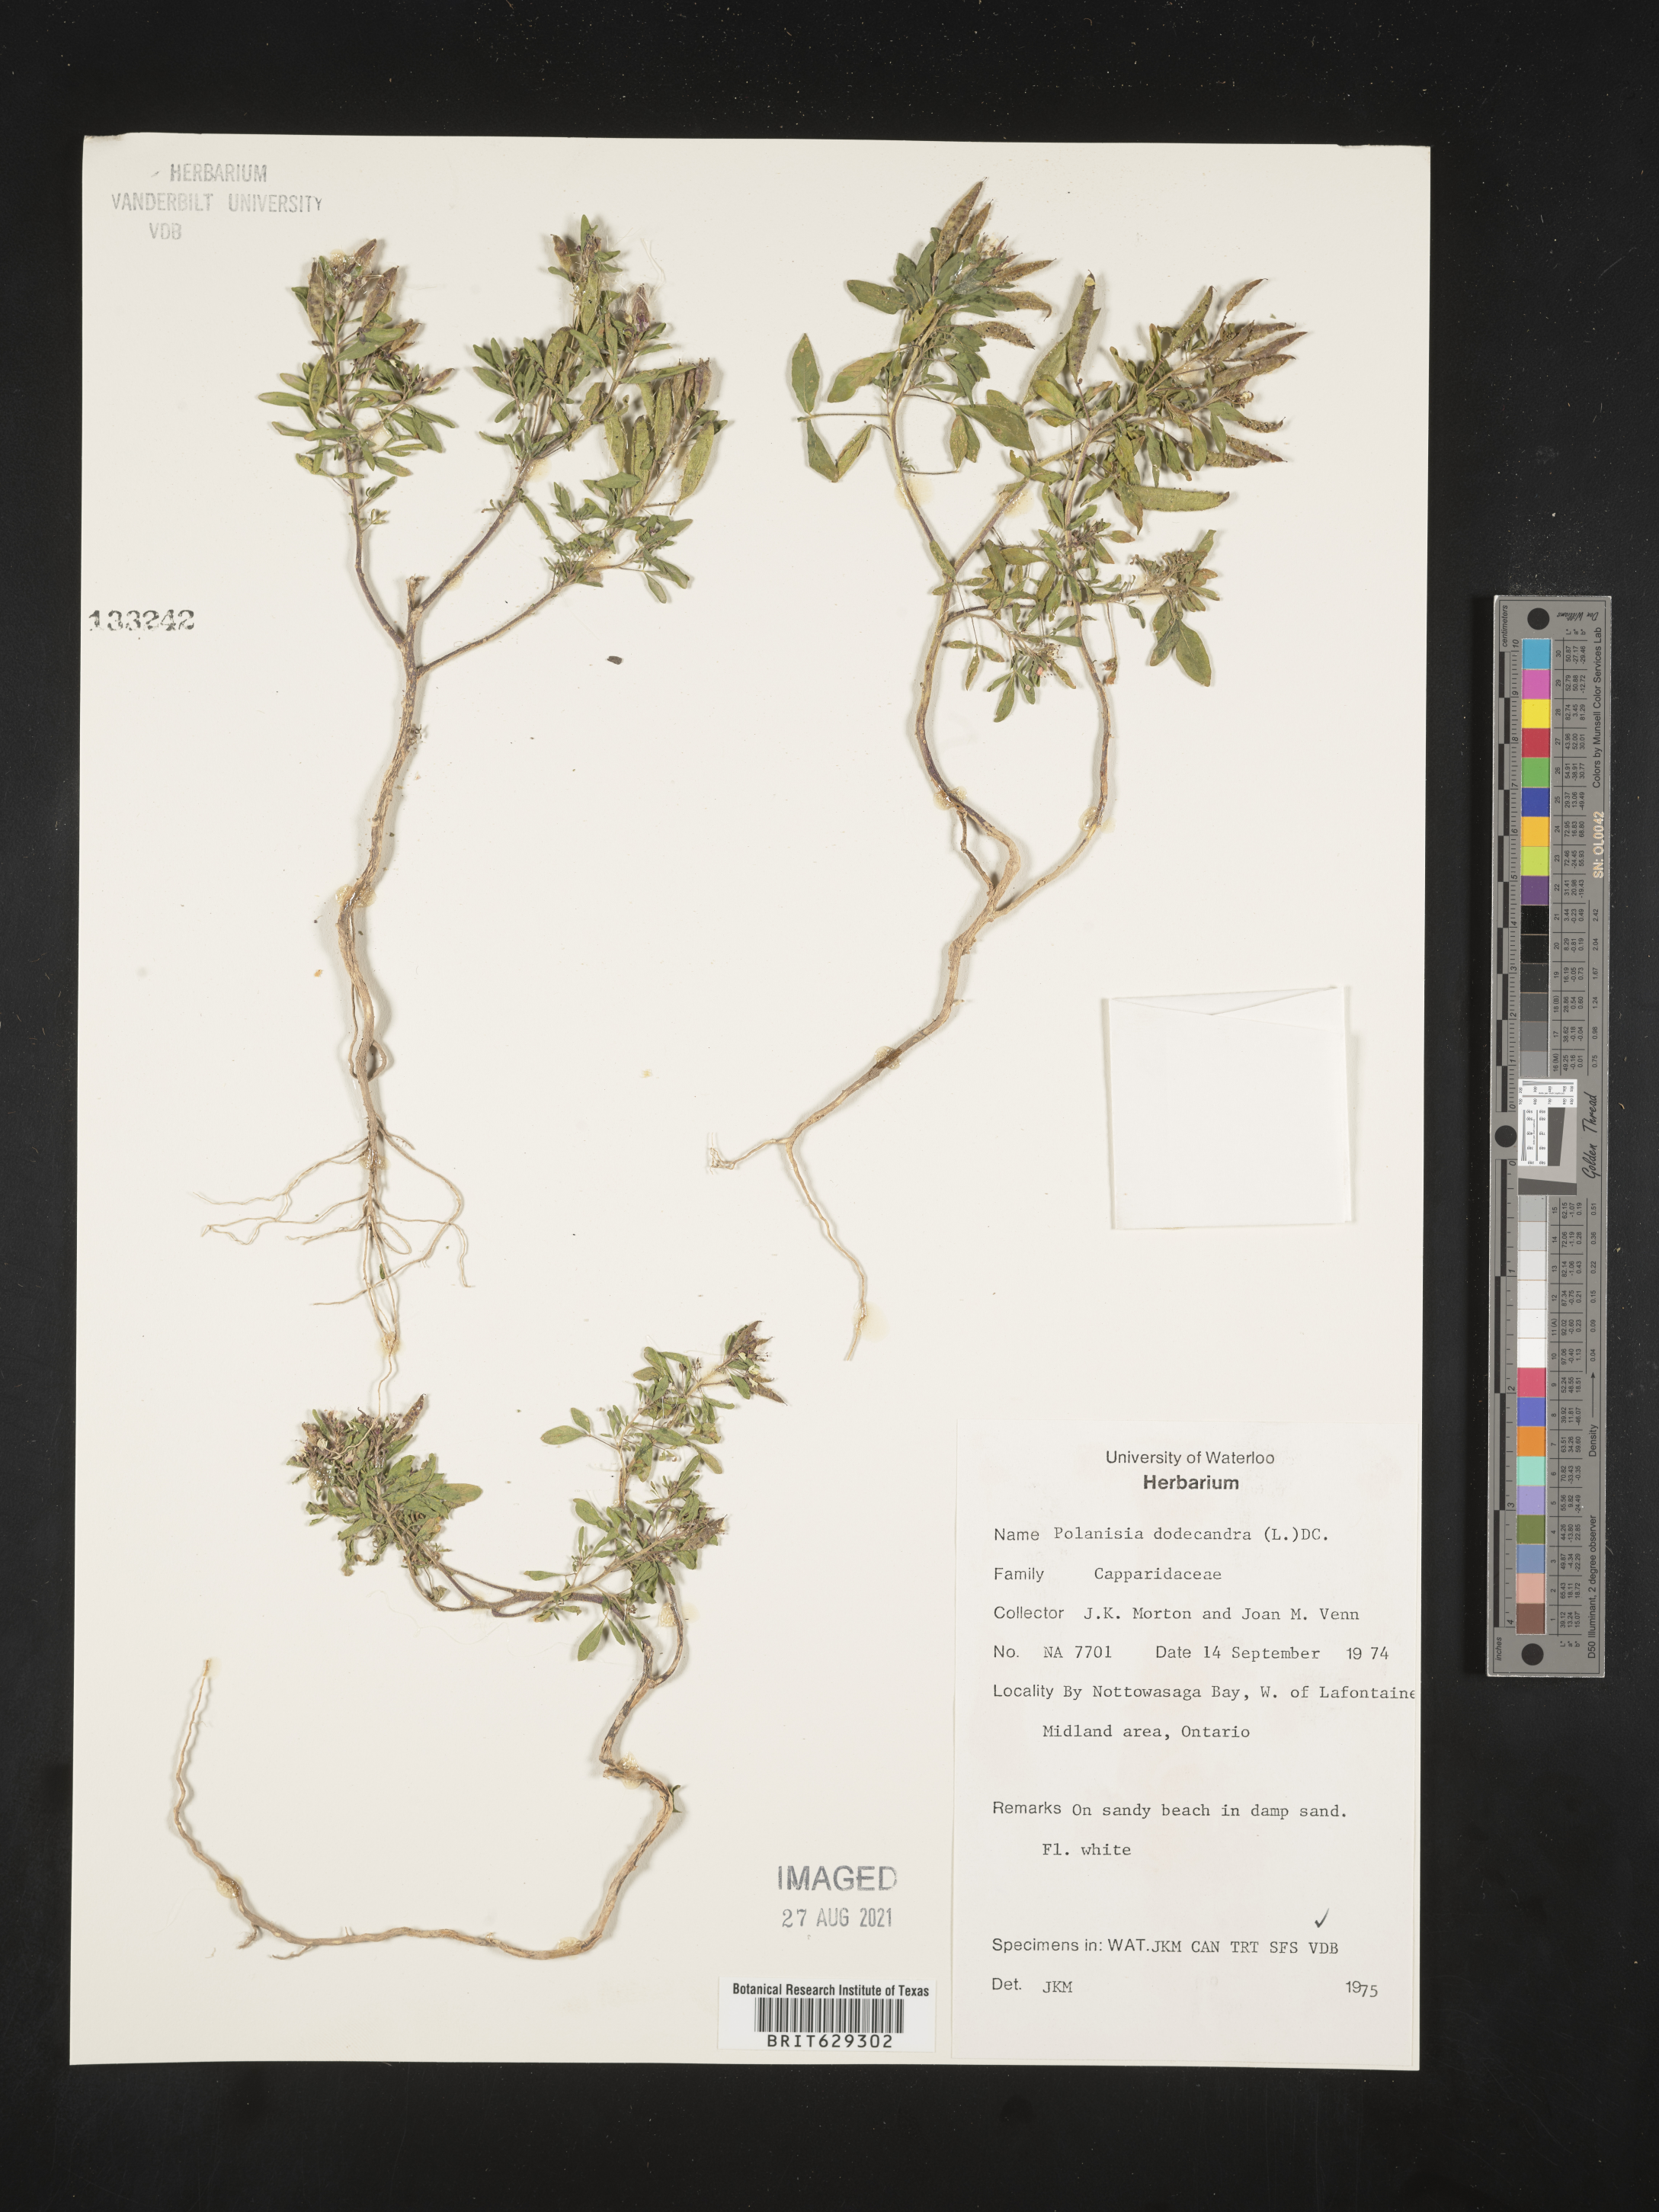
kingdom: Plantae
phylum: Tracheophyta
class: Magnoliopsida
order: Brassicales
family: Cleomaceae
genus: Polanisia
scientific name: Polanisia dodecandra
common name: Clammyweed
